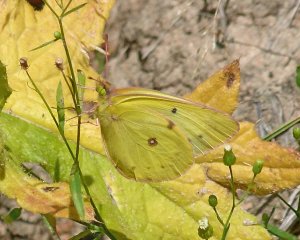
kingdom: Animalia
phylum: Arthropoda
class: Insecta
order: Lepidoptera
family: Pieridae
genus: Colias
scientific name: Colias philodice
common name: Clouded Sulphur
